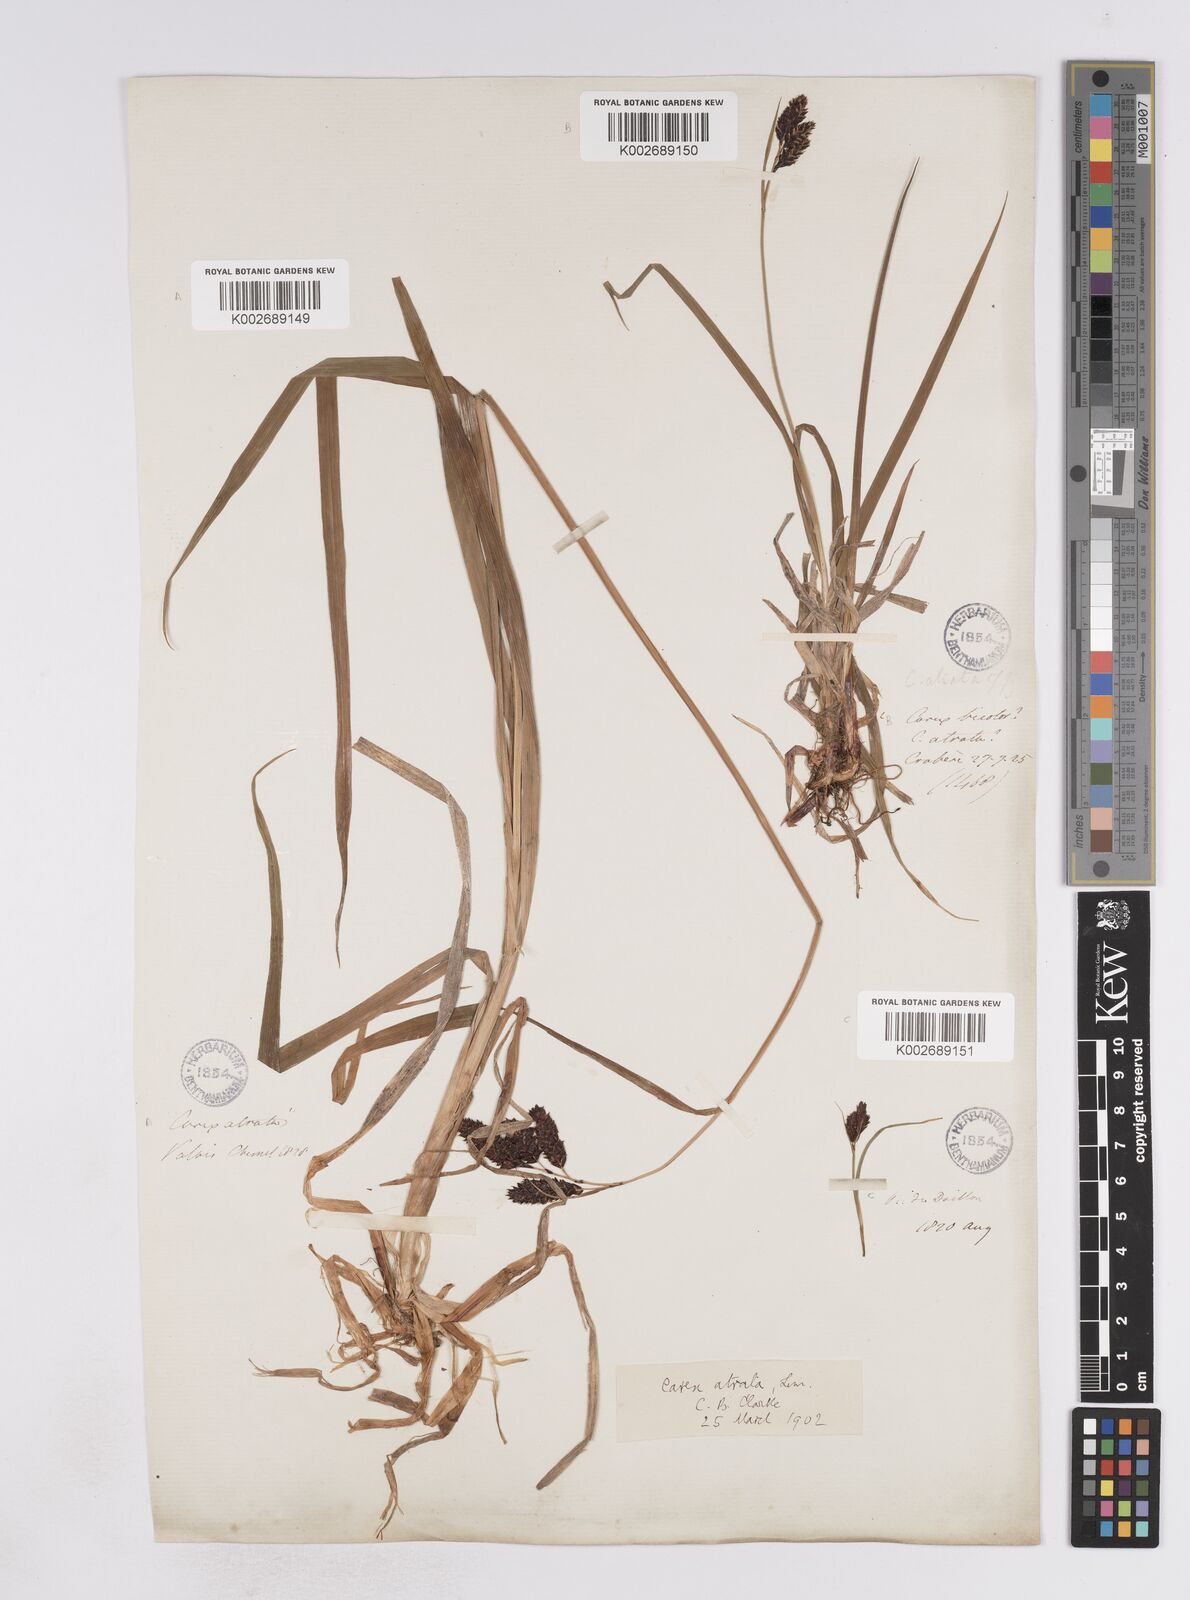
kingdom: Plantae
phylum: Tracheophyta
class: Liliopsida
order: Poales
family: Cyperaceae
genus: Carex
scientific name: Carex aterrima
